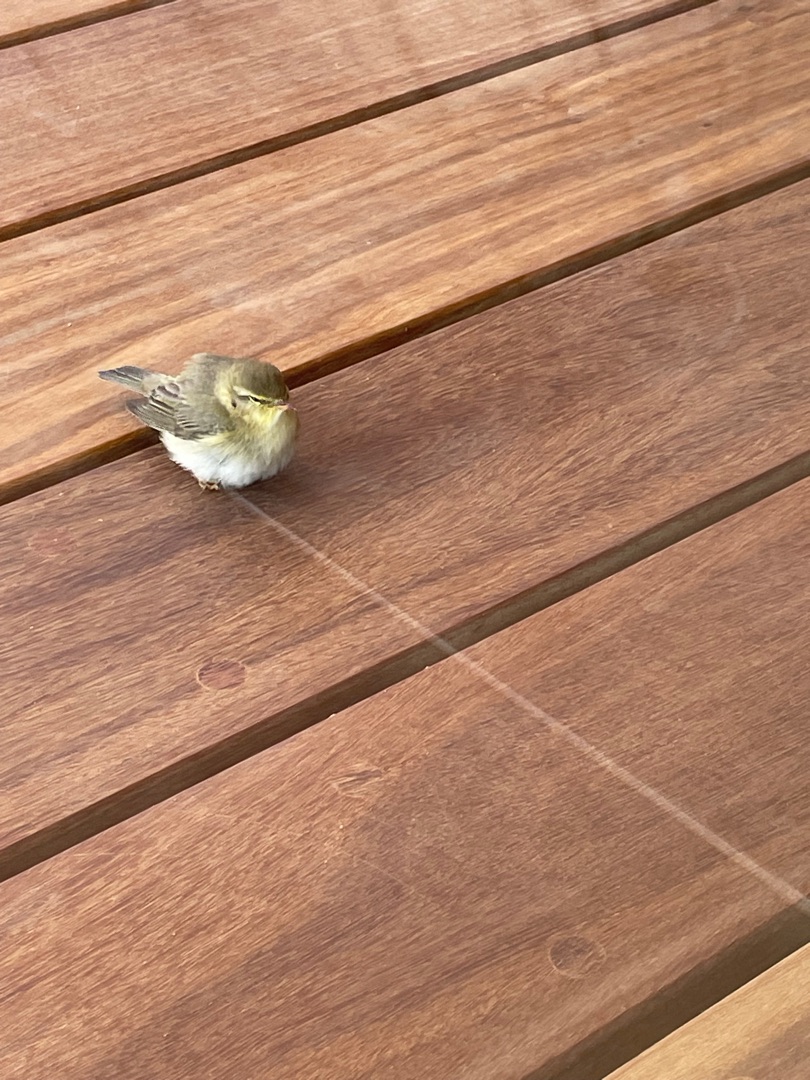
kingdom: Animalia
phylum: Chordata
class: Aves
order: Passeriformes
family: Phylloscopidae
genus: Phylloscopus
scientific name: Phylloscopus trochilus
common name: Løvsanger
